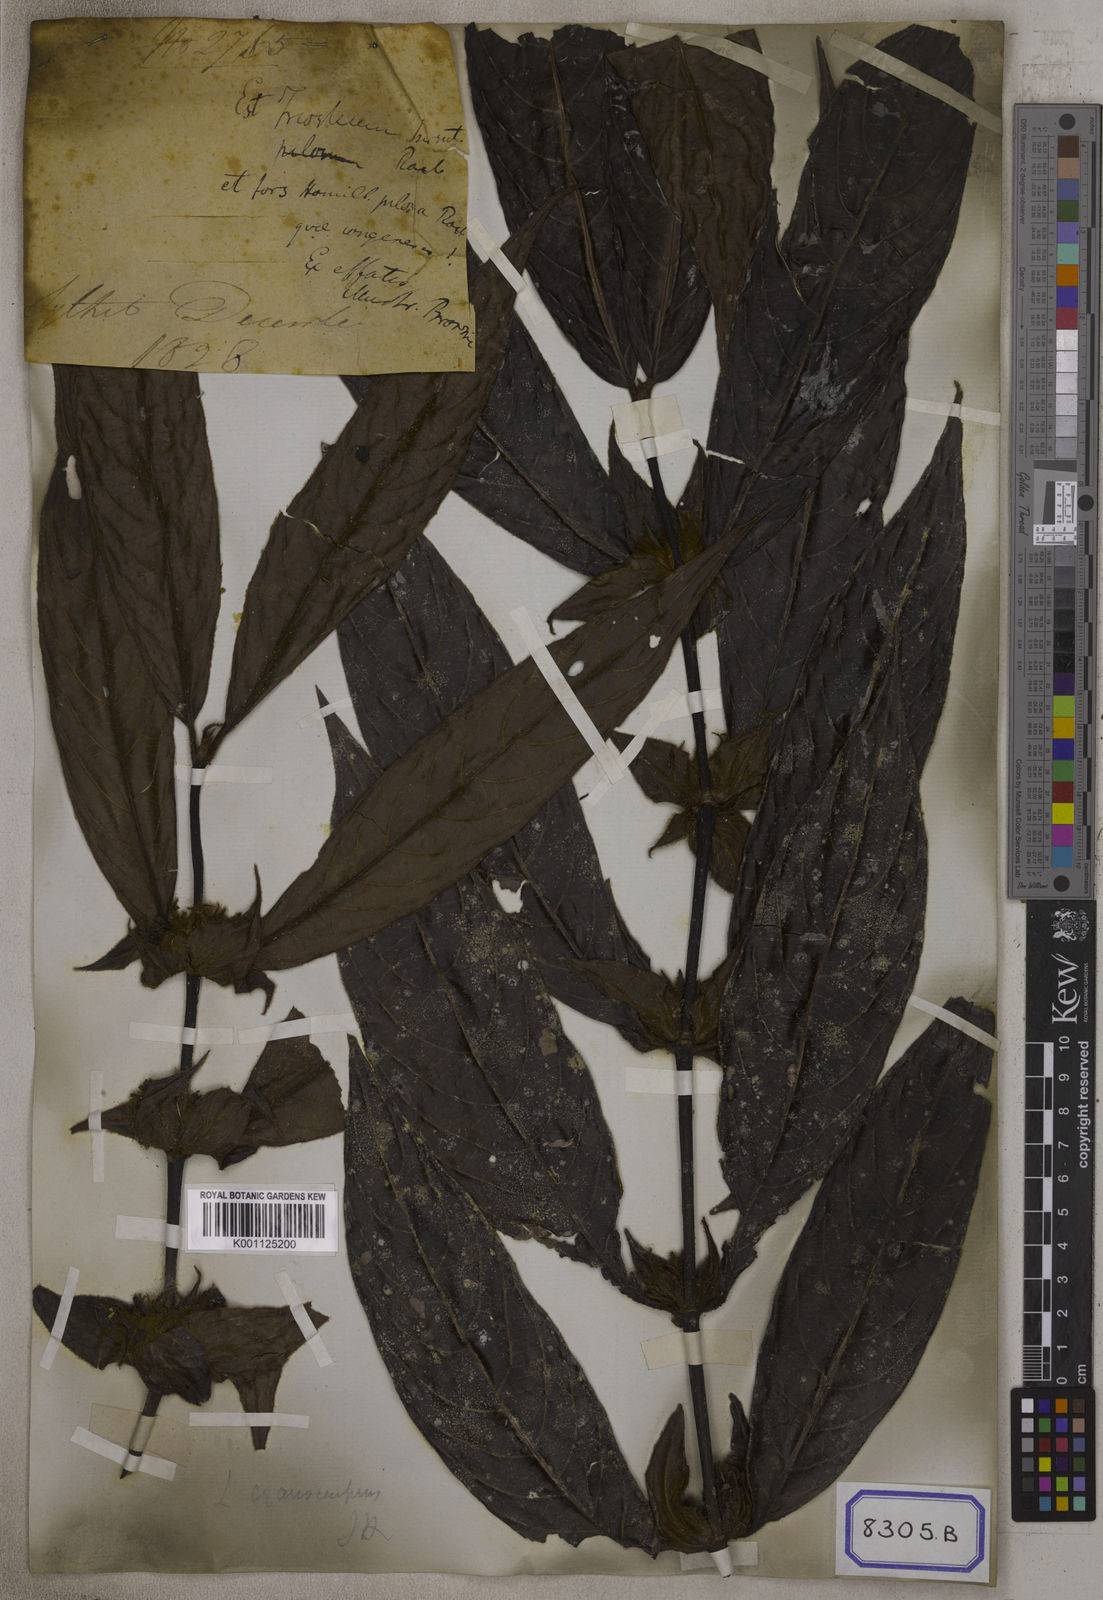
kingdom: Plantae
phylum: Tracheophyta
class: Magnoliopsida
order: Gentianales
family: Rubiaceae
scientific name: Rubiaceae
